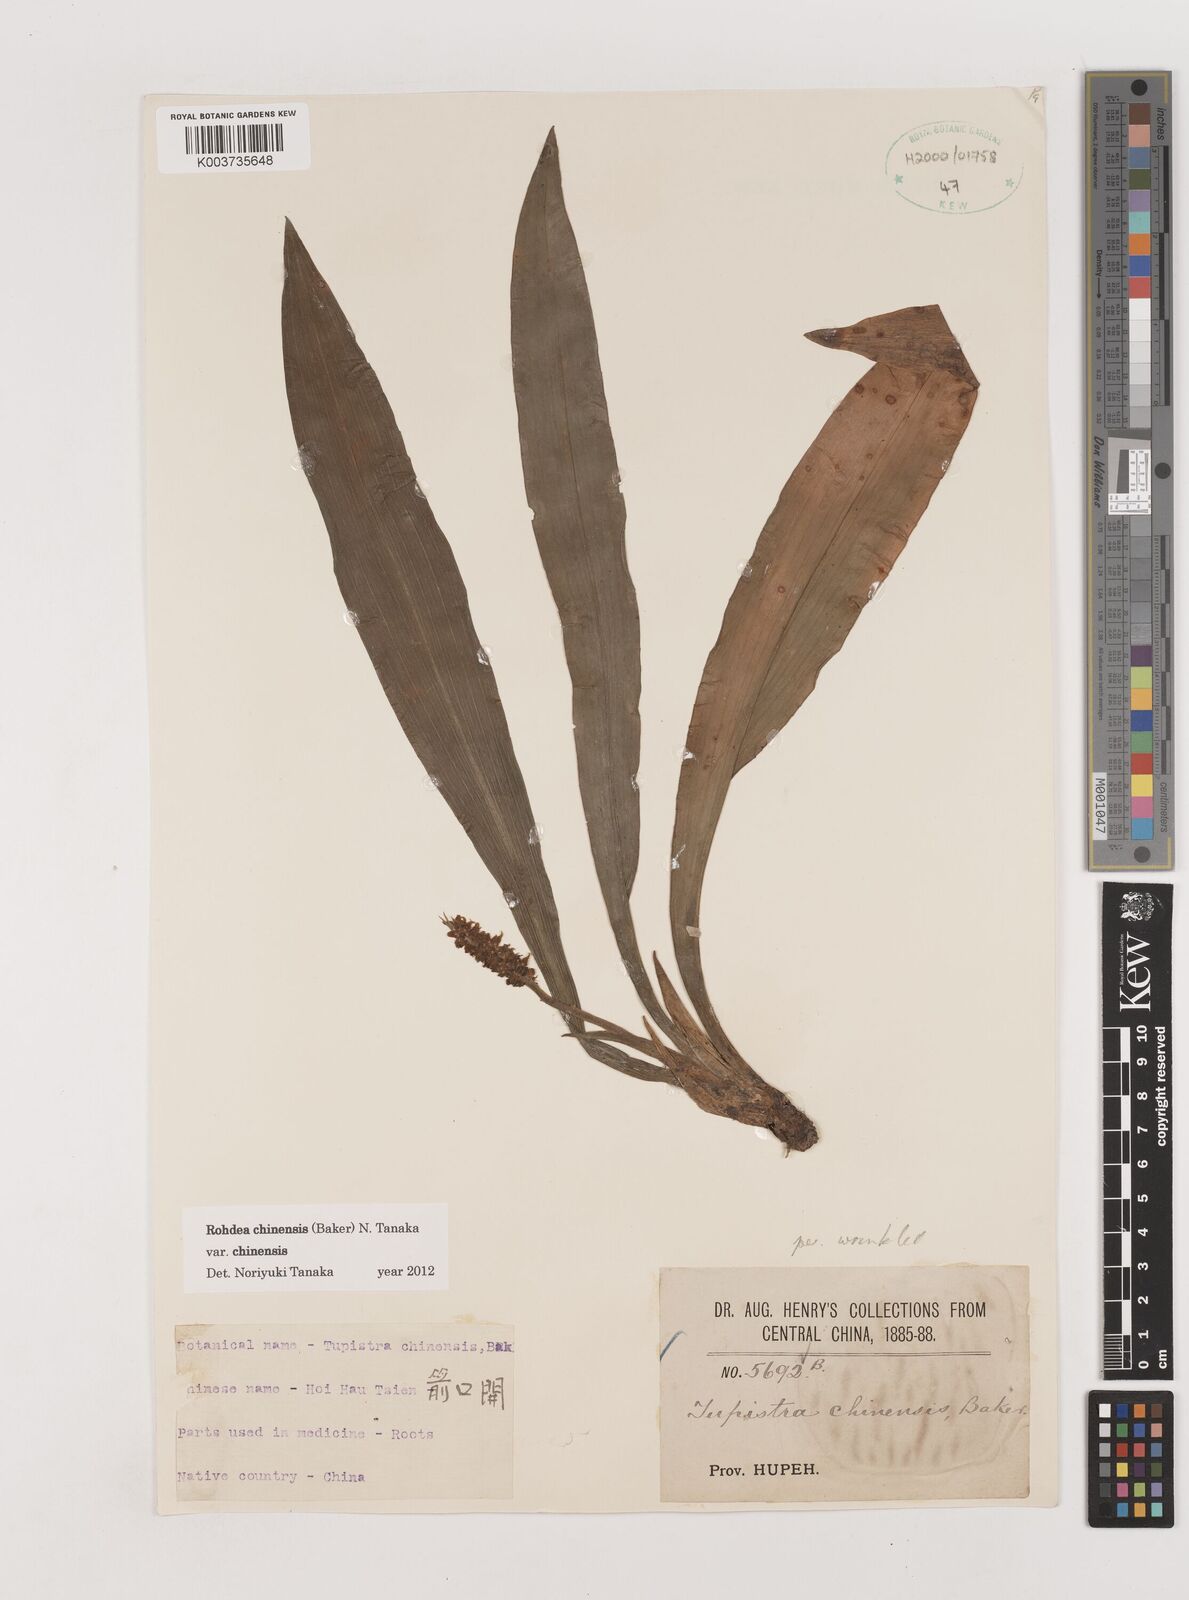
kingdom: Plantae
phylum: Tracheophyta
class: Liliopsida
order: Asparagales
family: Asparagaceae
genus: Rohdea
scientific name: Rohdea fargesii
